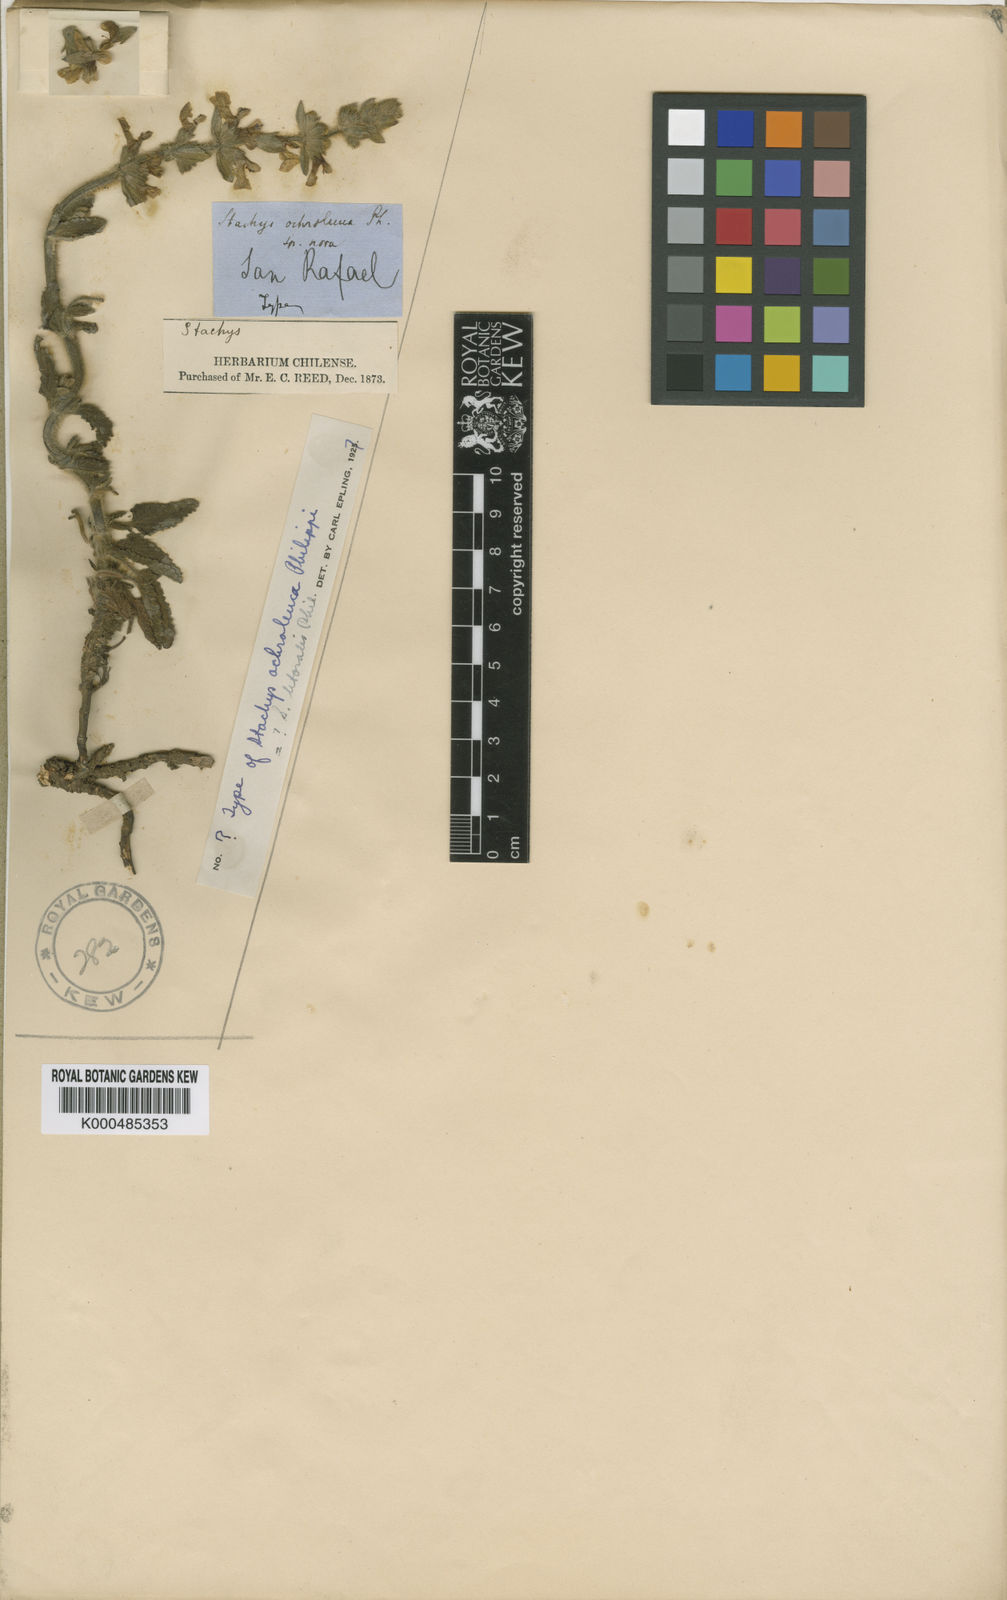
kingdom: Plantae
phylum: Tracheophyta
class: Magnoliopsida
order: Lamiales
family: Lamiaceae
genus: Stachys
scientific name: Stachys ochroleuca
